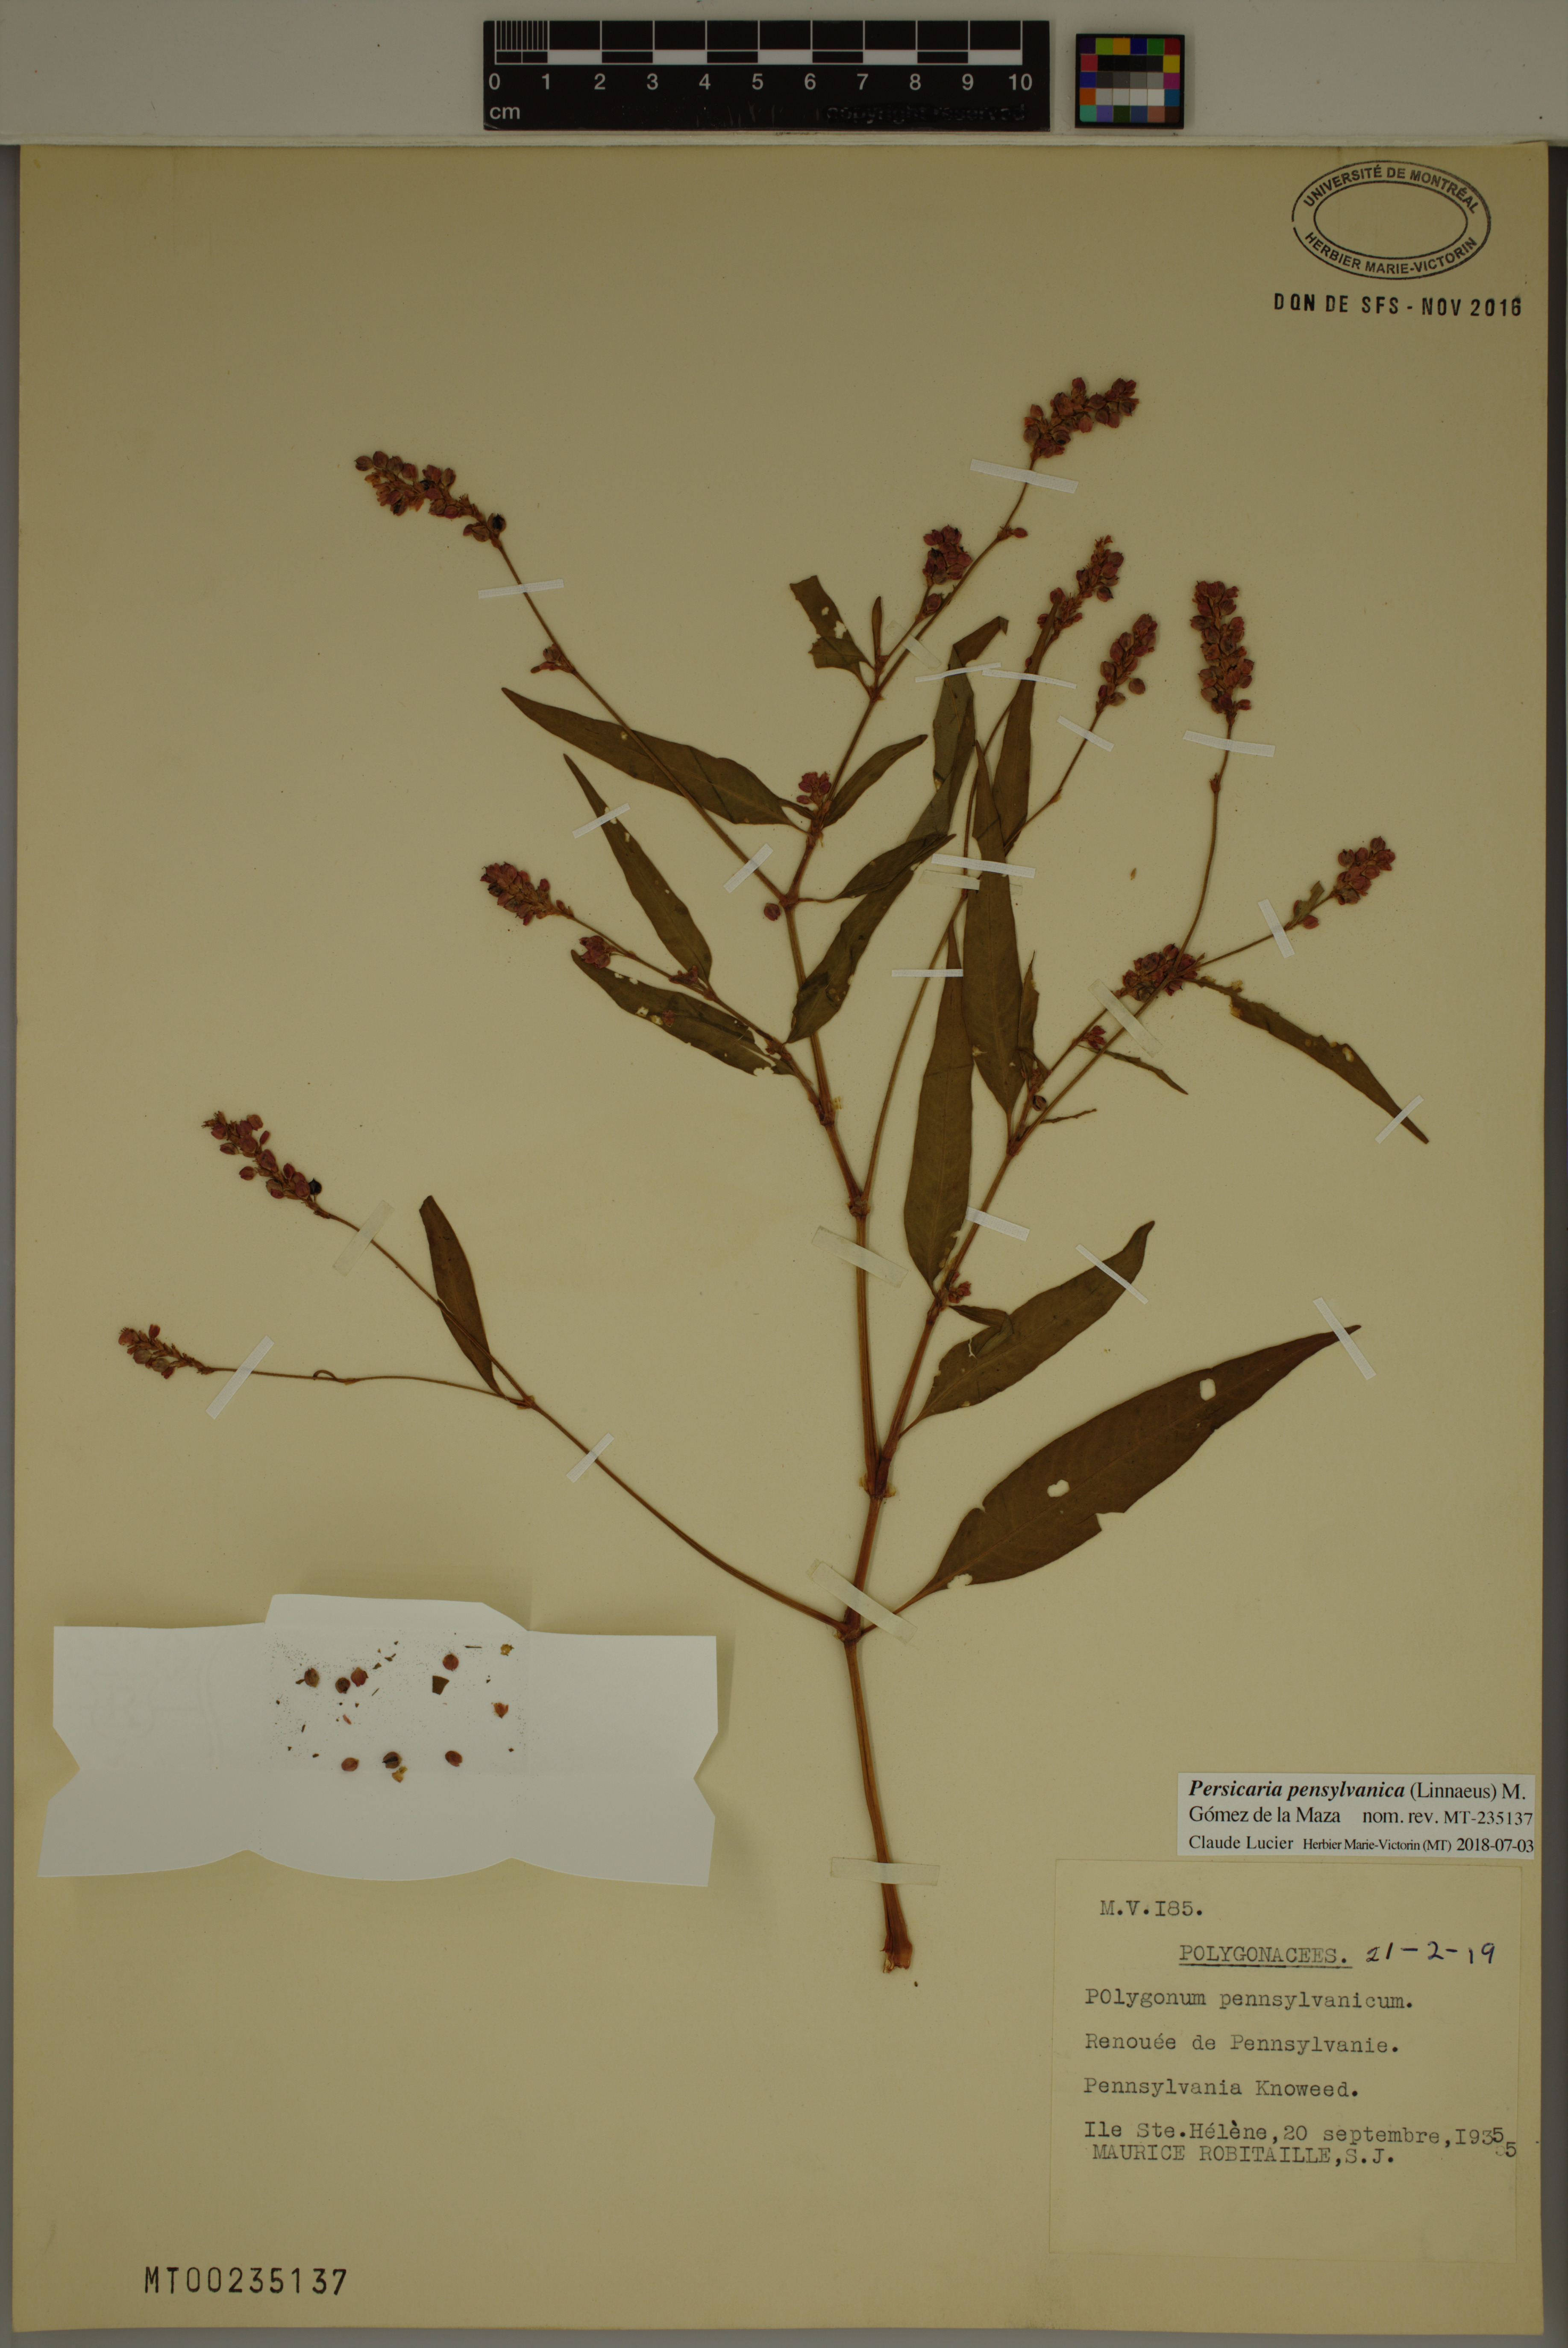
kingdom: Plantae
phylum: Tracheophyta
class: Magnoliopsida
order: Caryophyllales
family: Polygonaceae
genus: Persicaria
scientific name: Persicaria pensylvanica
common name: Pinkweed
